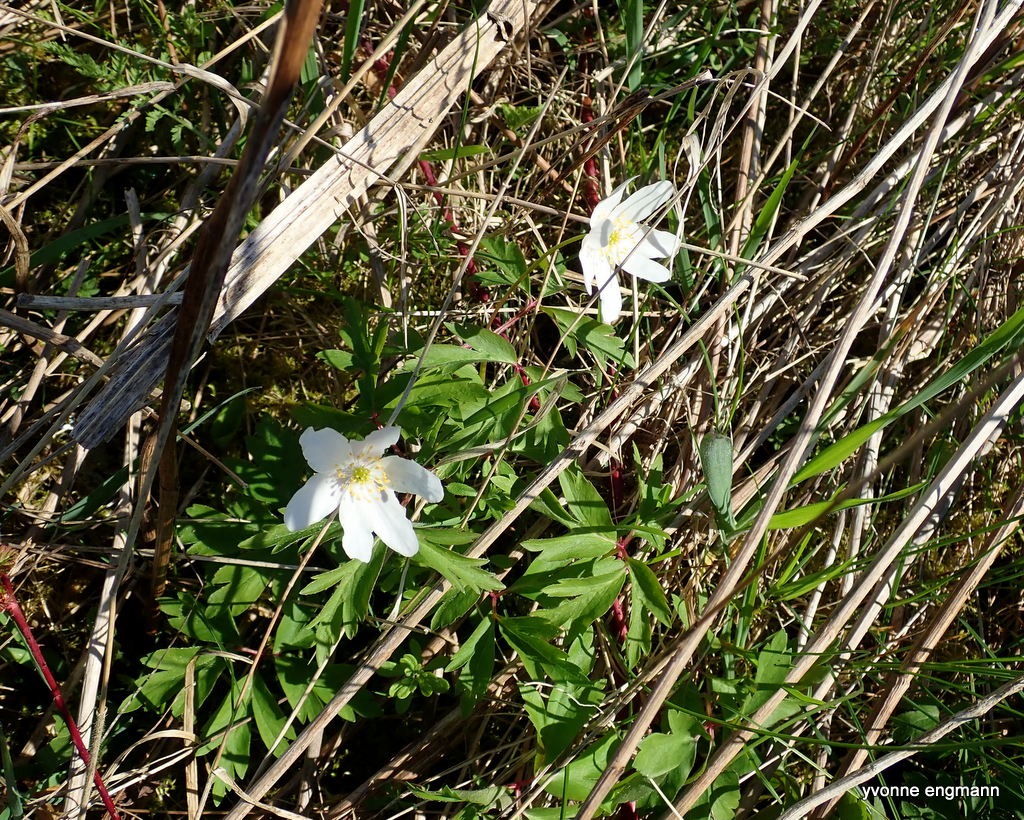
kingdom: Plantae
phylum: Tracheophyta
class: Magnoliopsida
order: Ranunculales
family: Ranunculaceae
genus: Anemone
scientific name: Anemone nemorosa
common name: Hvid anemone
